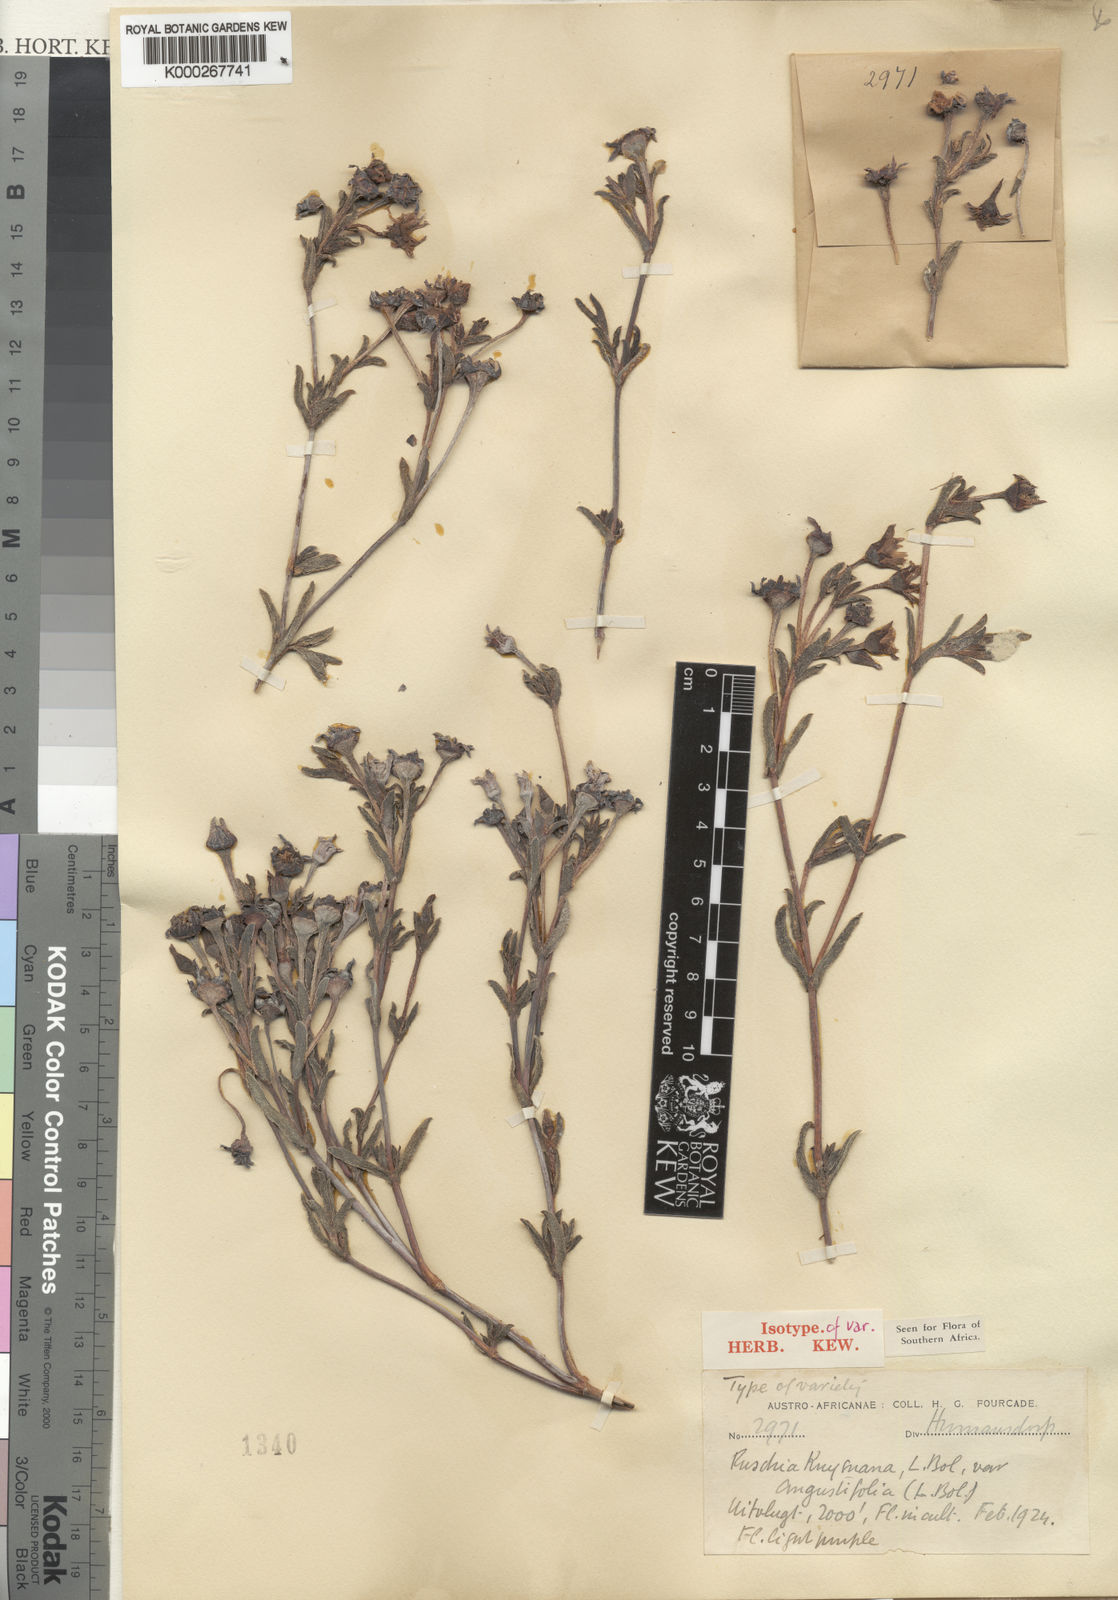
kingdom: Plantae
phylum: Tracheophyta
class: Magnoliopsida
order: Caryophyllales
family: Aizoaceae
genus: Esterhuysenia
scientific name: Esterhuysenia knysnana
